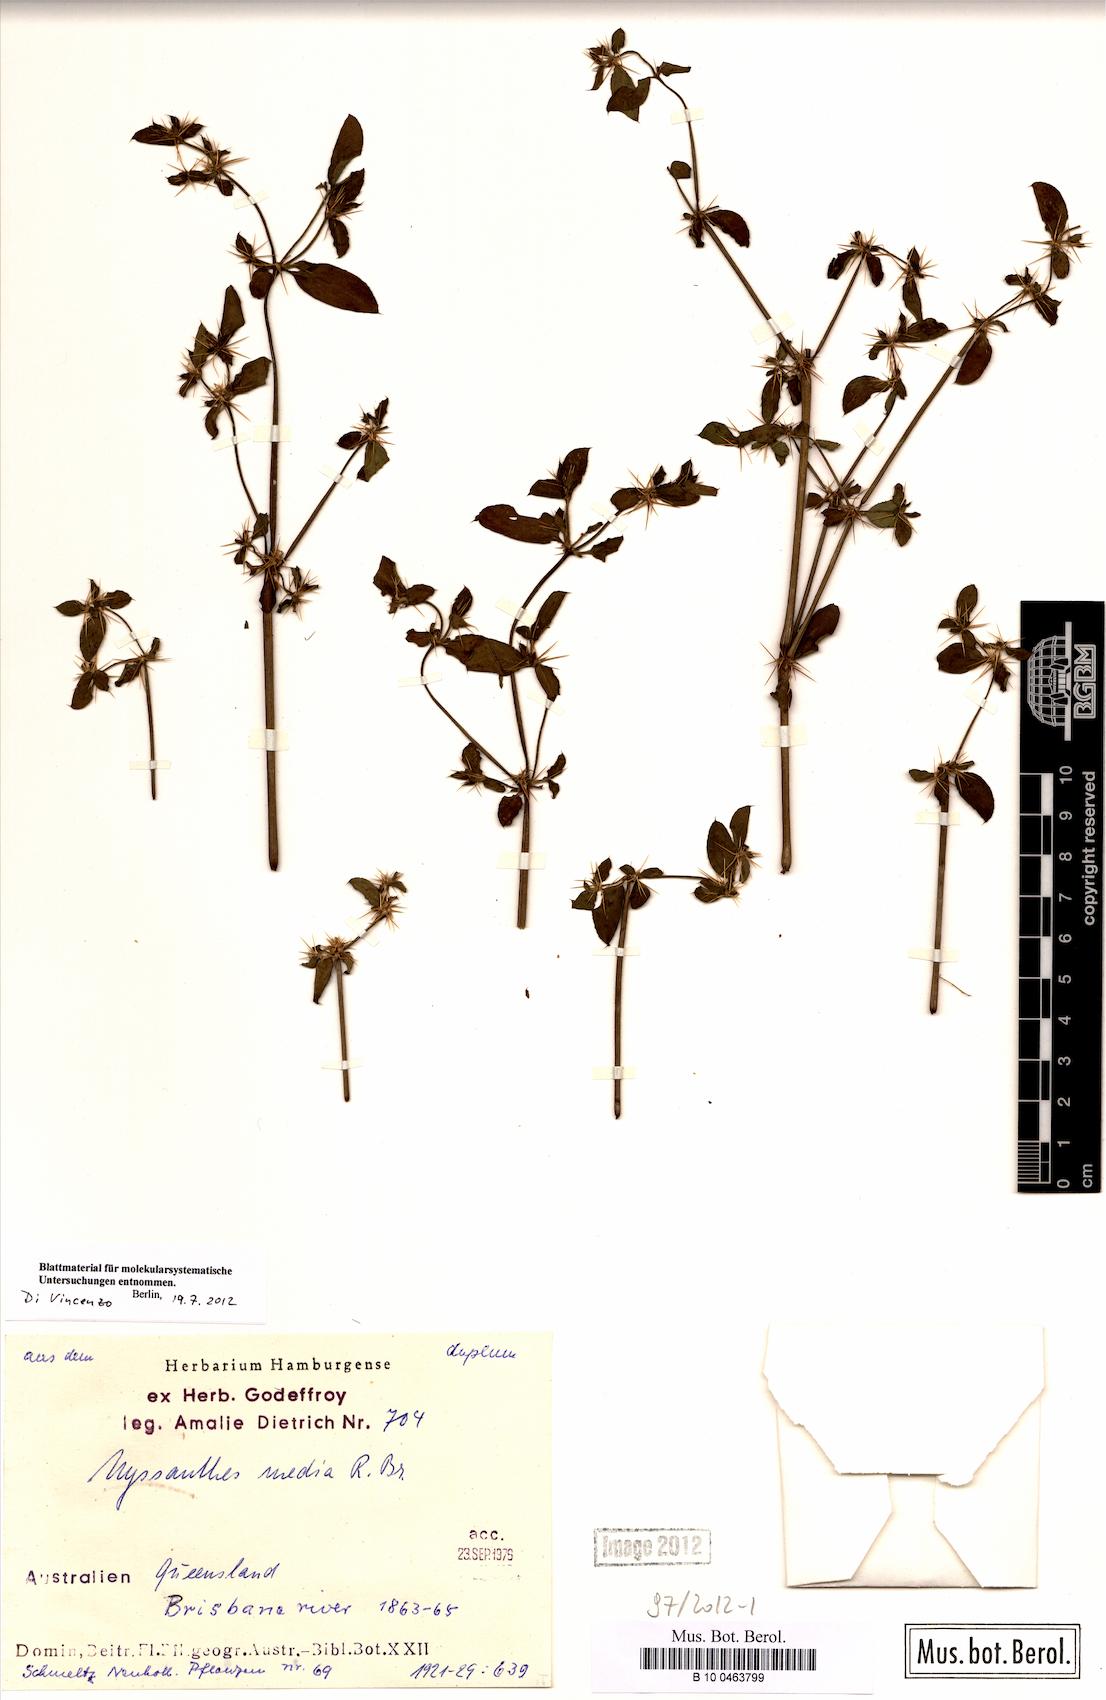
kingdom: Plantae
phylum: Tracheophyta
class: Magnoliopsida
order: Caryophyllales
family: Amaranthaceae
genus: Nyssanthes
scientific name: Nyssanthes diffusa
